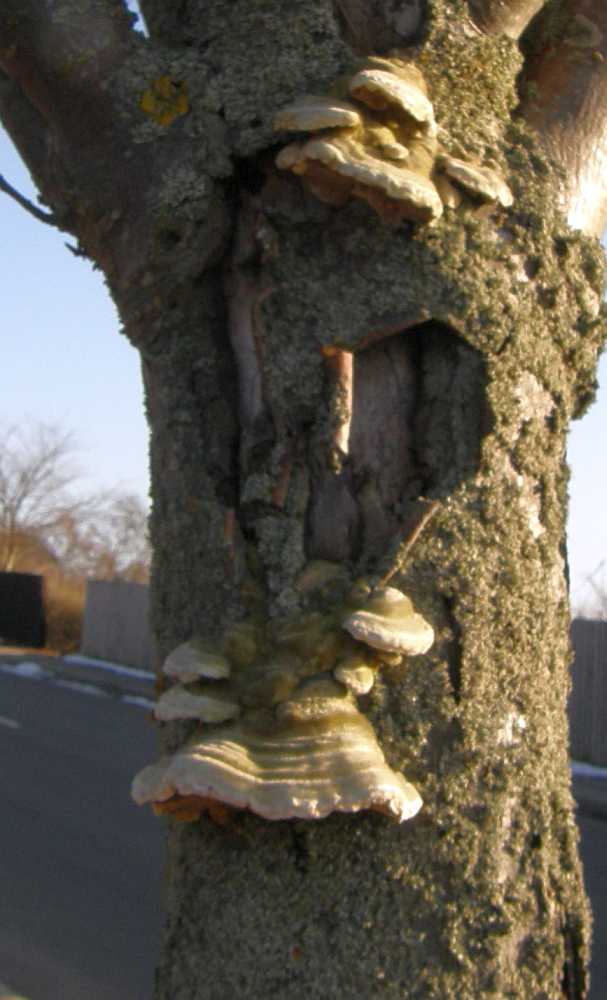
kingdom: Fungi
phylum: Basidiomycota
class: Agaricomycetes
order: Polyporales
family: Polyporaceae
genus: Trametes
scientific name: Trametes hirsuta
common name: håret læderporesvamp
